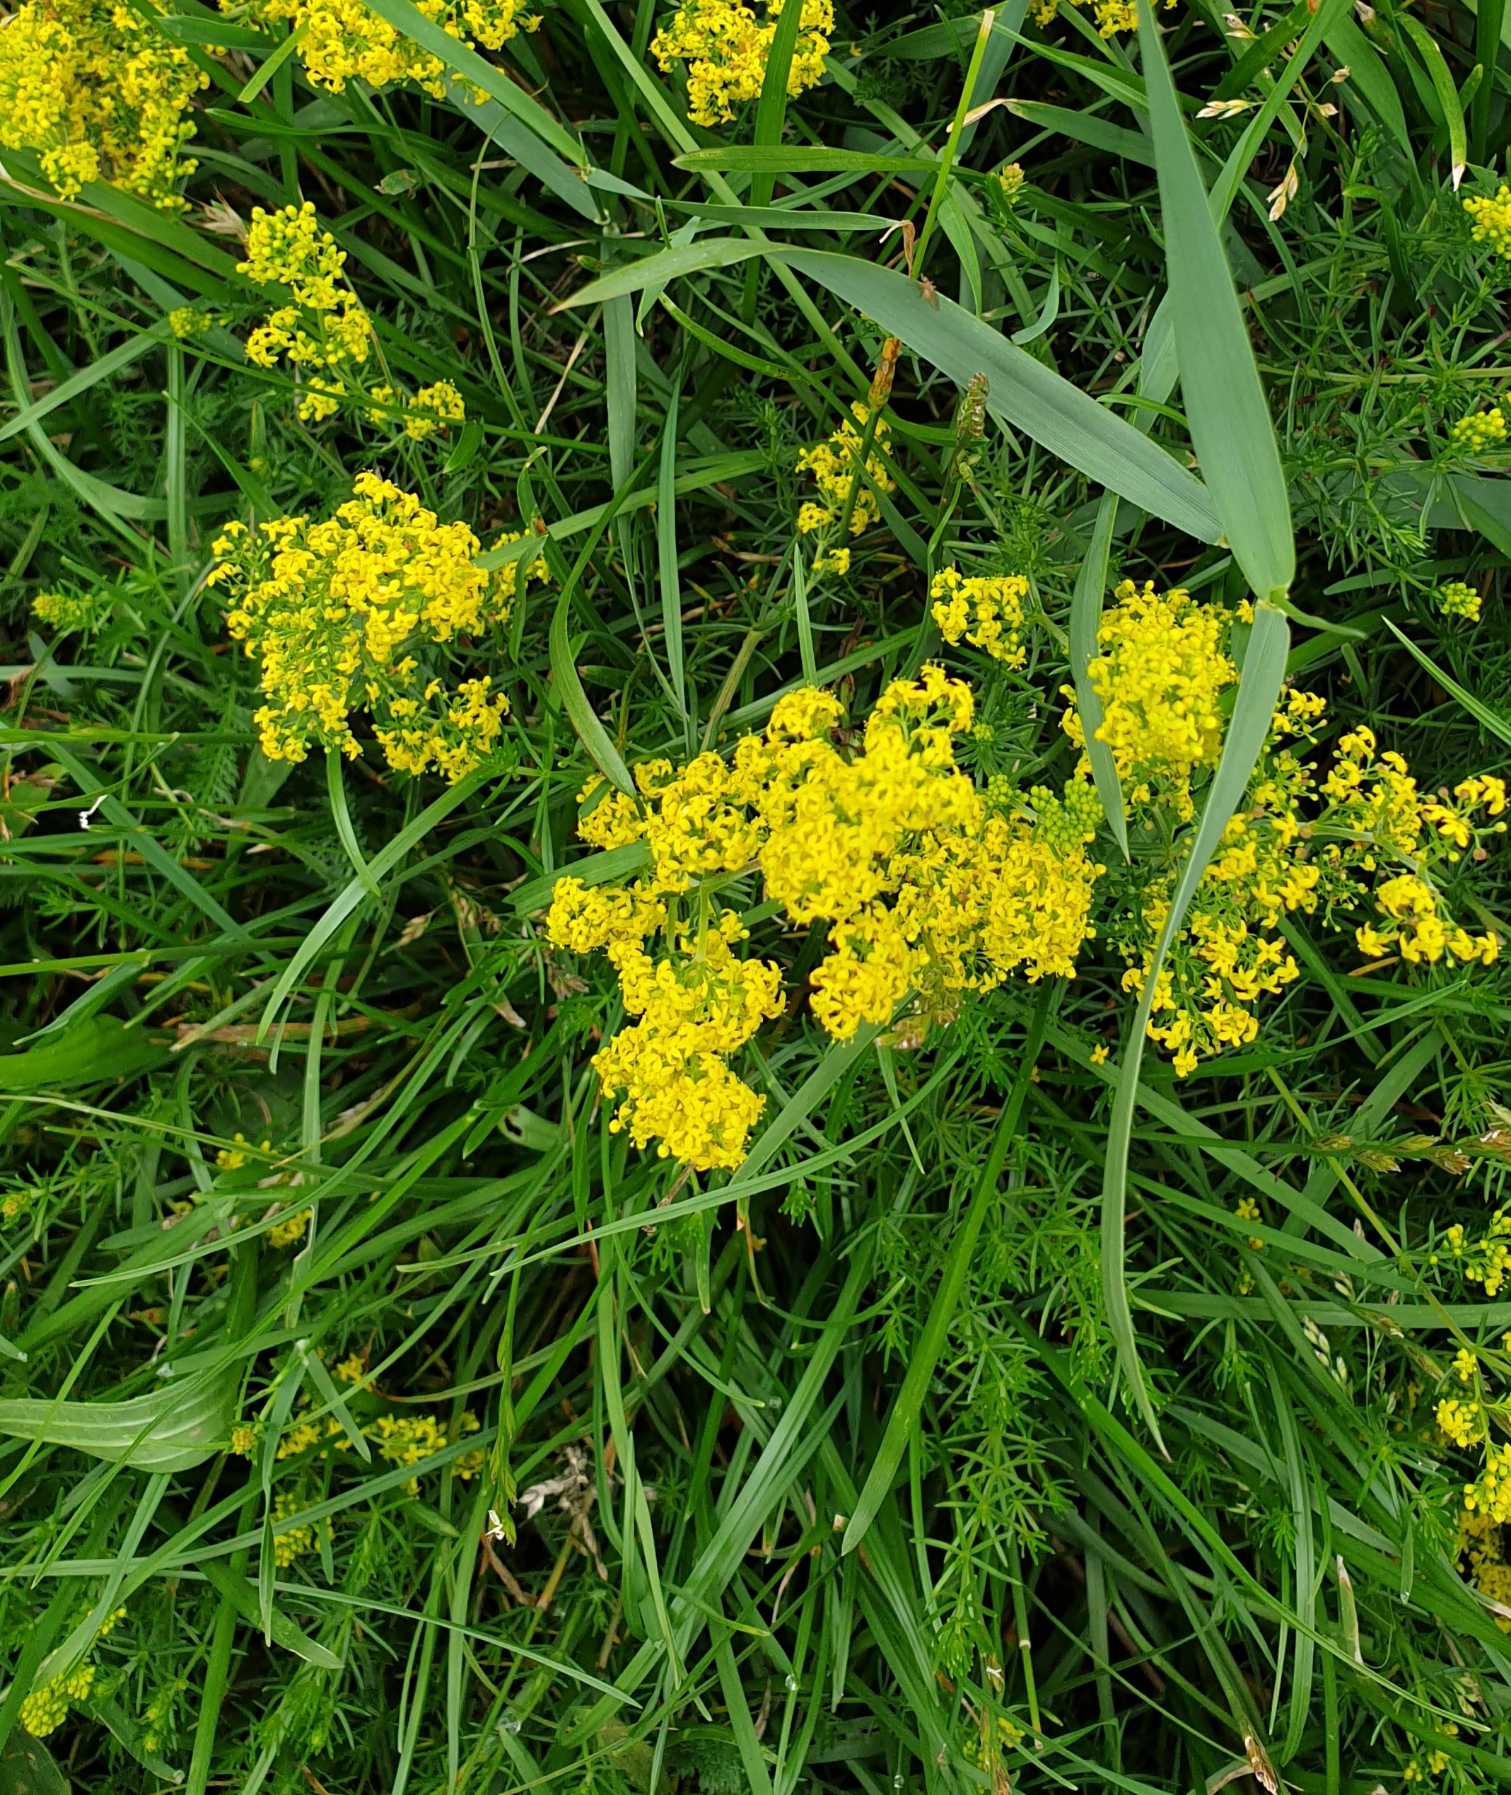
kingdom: Plantae
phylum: Tracheophyta
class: Magnoliopsida
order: Gentianales
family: Rubiaceae
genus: Galium
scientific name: Galium verum
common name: Gul snerre
